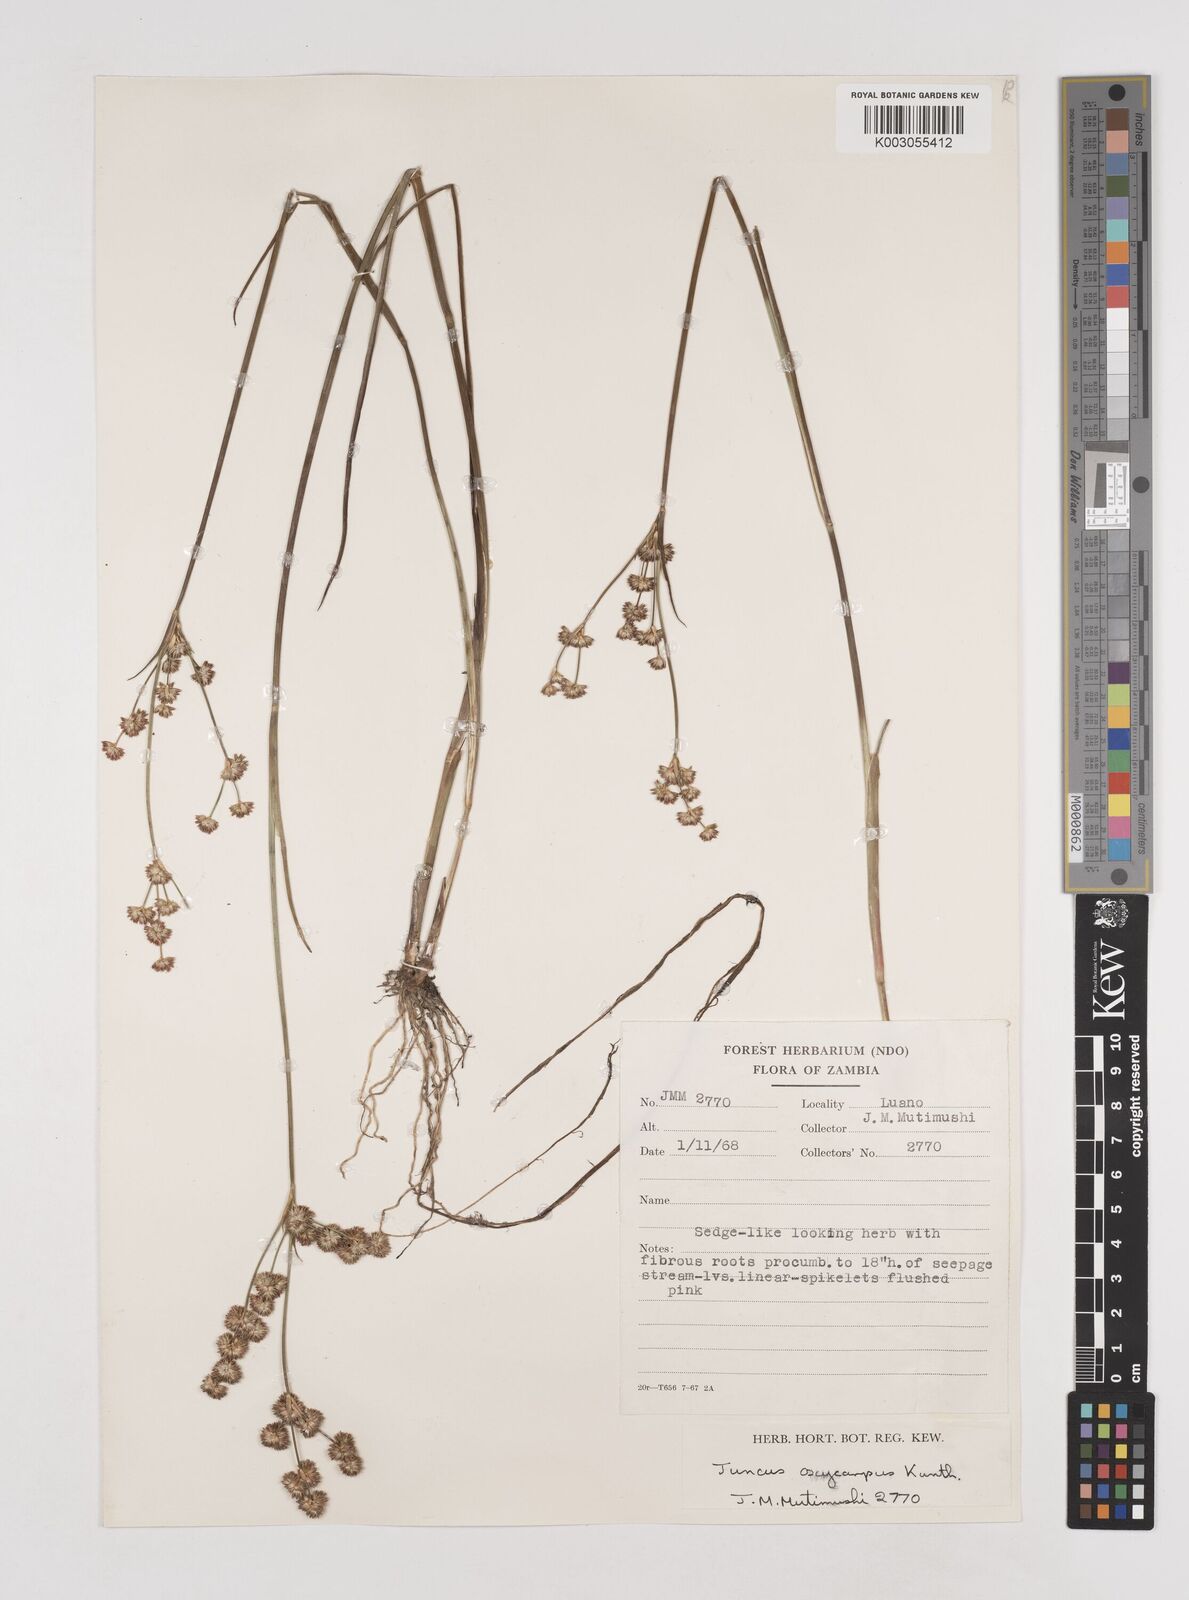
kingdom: Plantae
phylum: Tracheophyta
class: Liliopsida
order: Poales
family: Juncaceae
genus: Juncus
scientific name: Juncus oxycarpus
